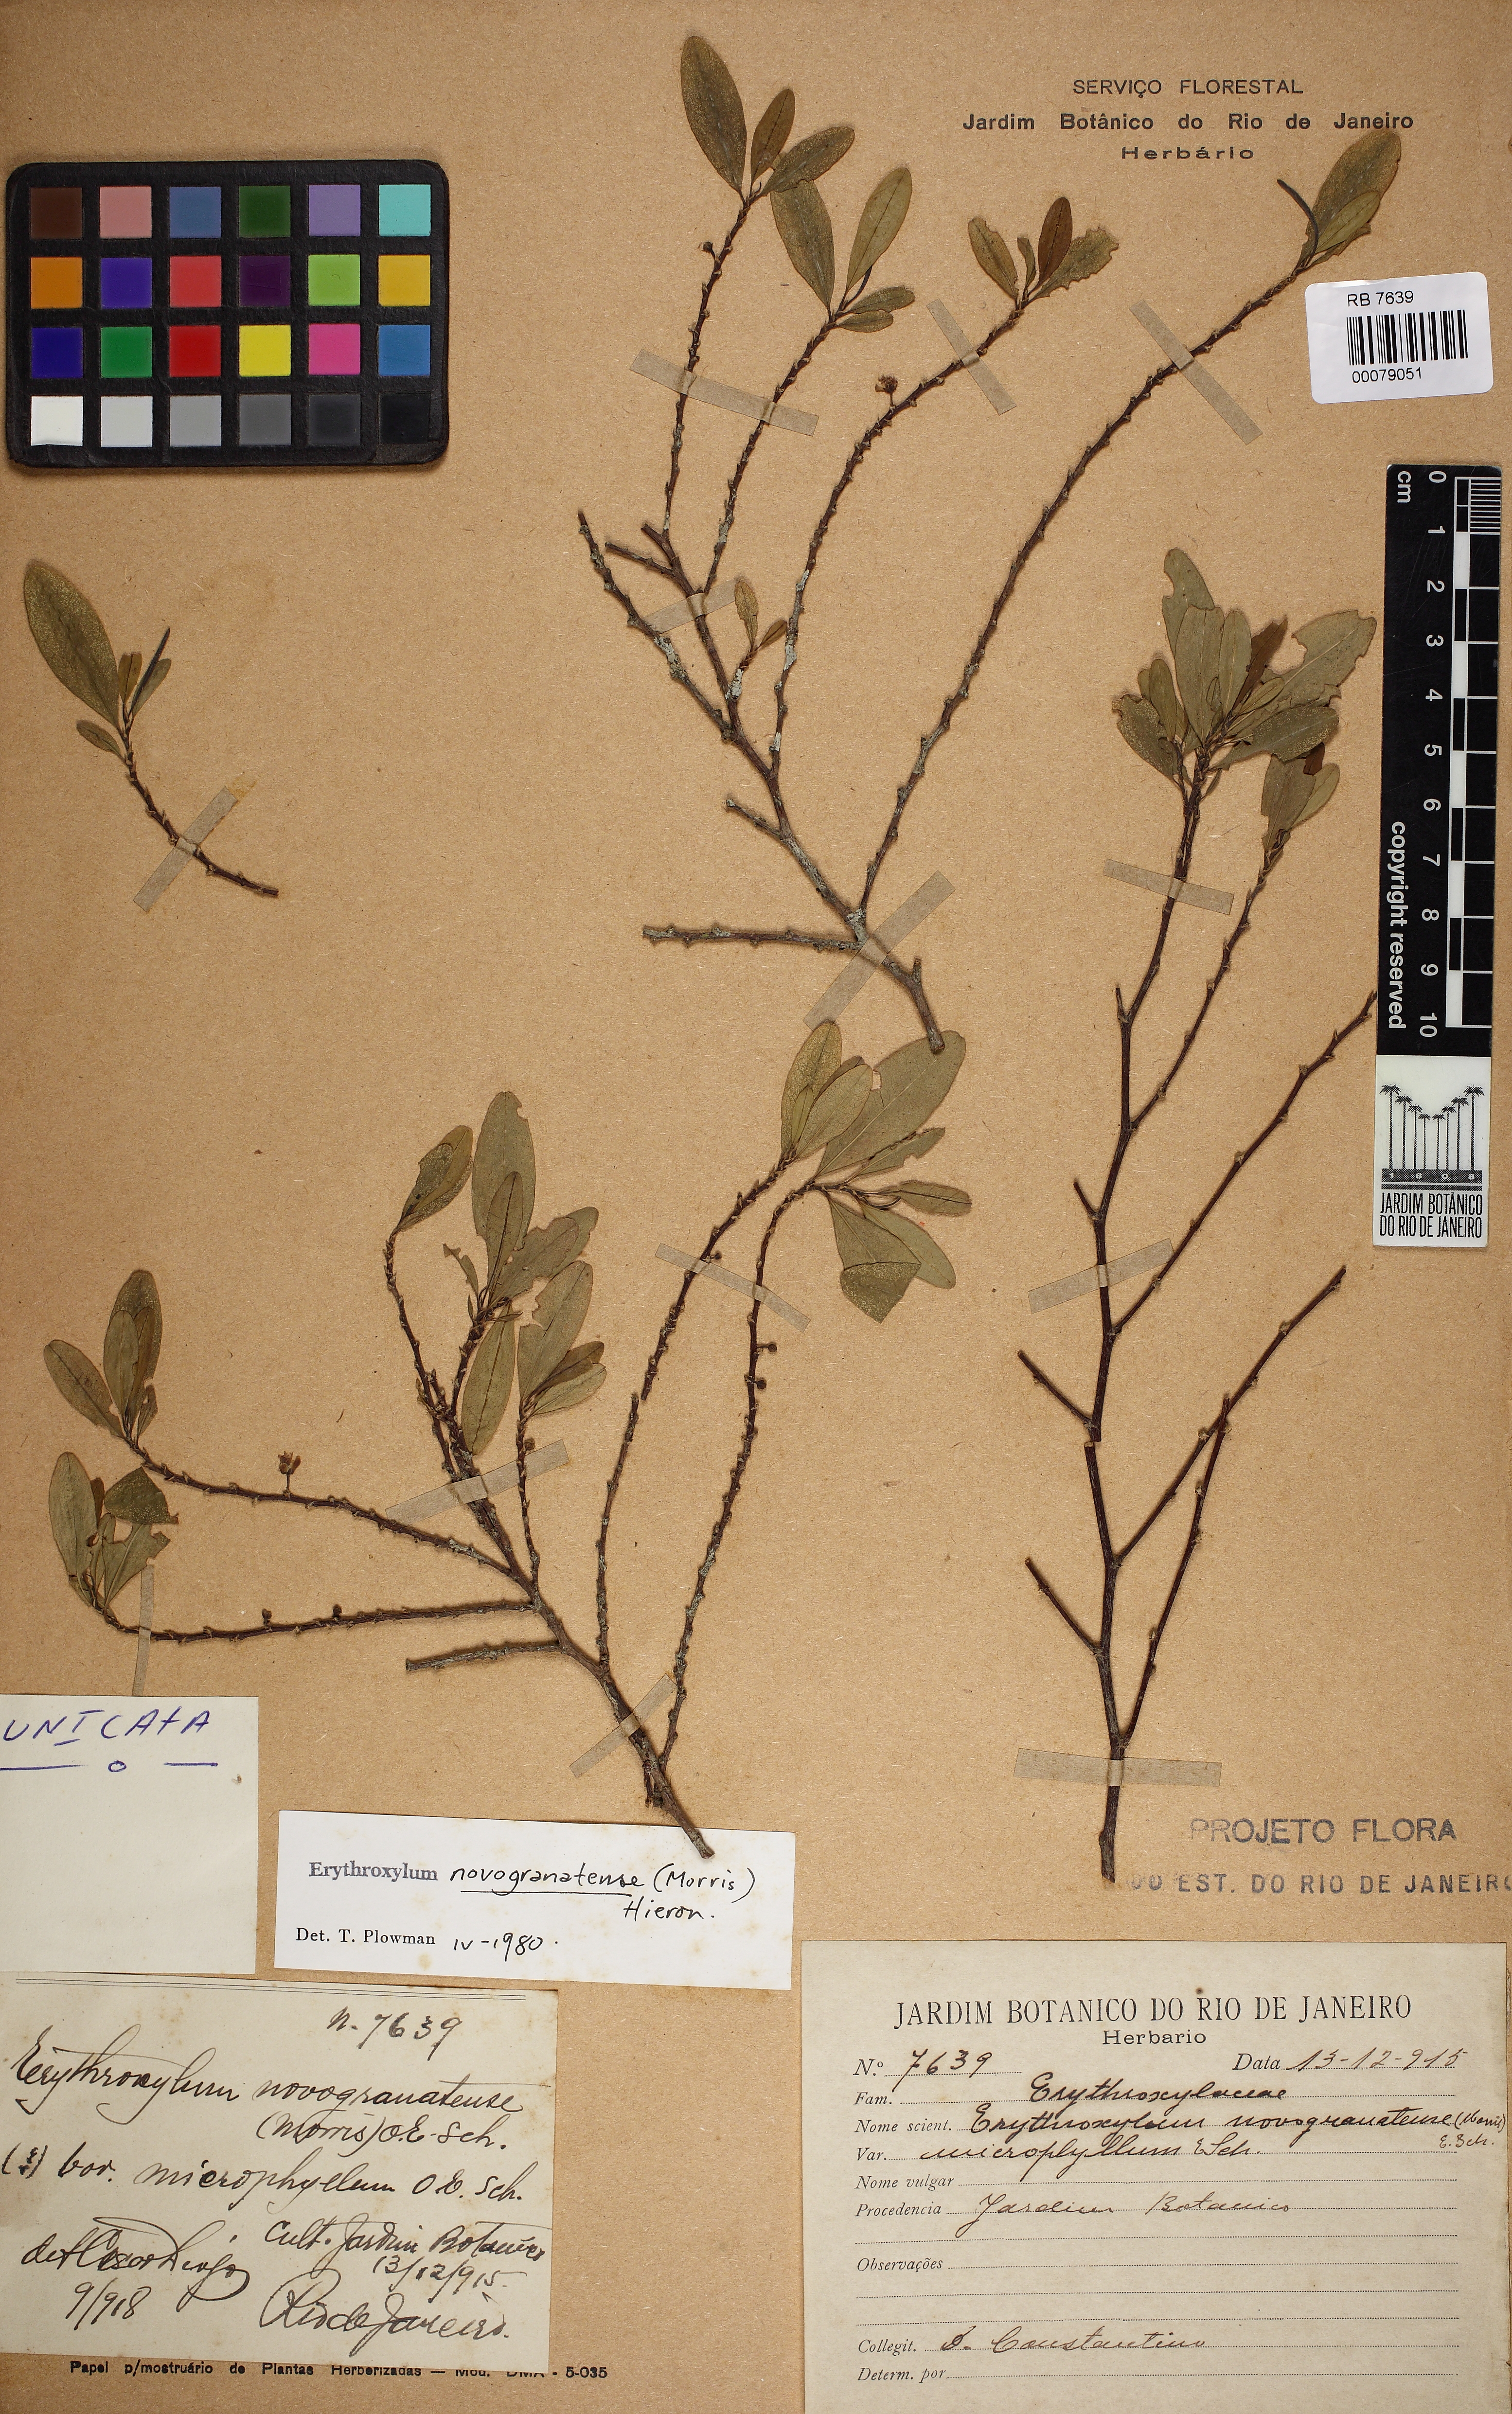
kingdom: Plantae
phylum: Tracheophyta
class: Magnoliopsida
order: Malpighiales
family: Erythroxylaceae
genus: Erythroxylum
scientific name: Erythroxylum novogranatense
